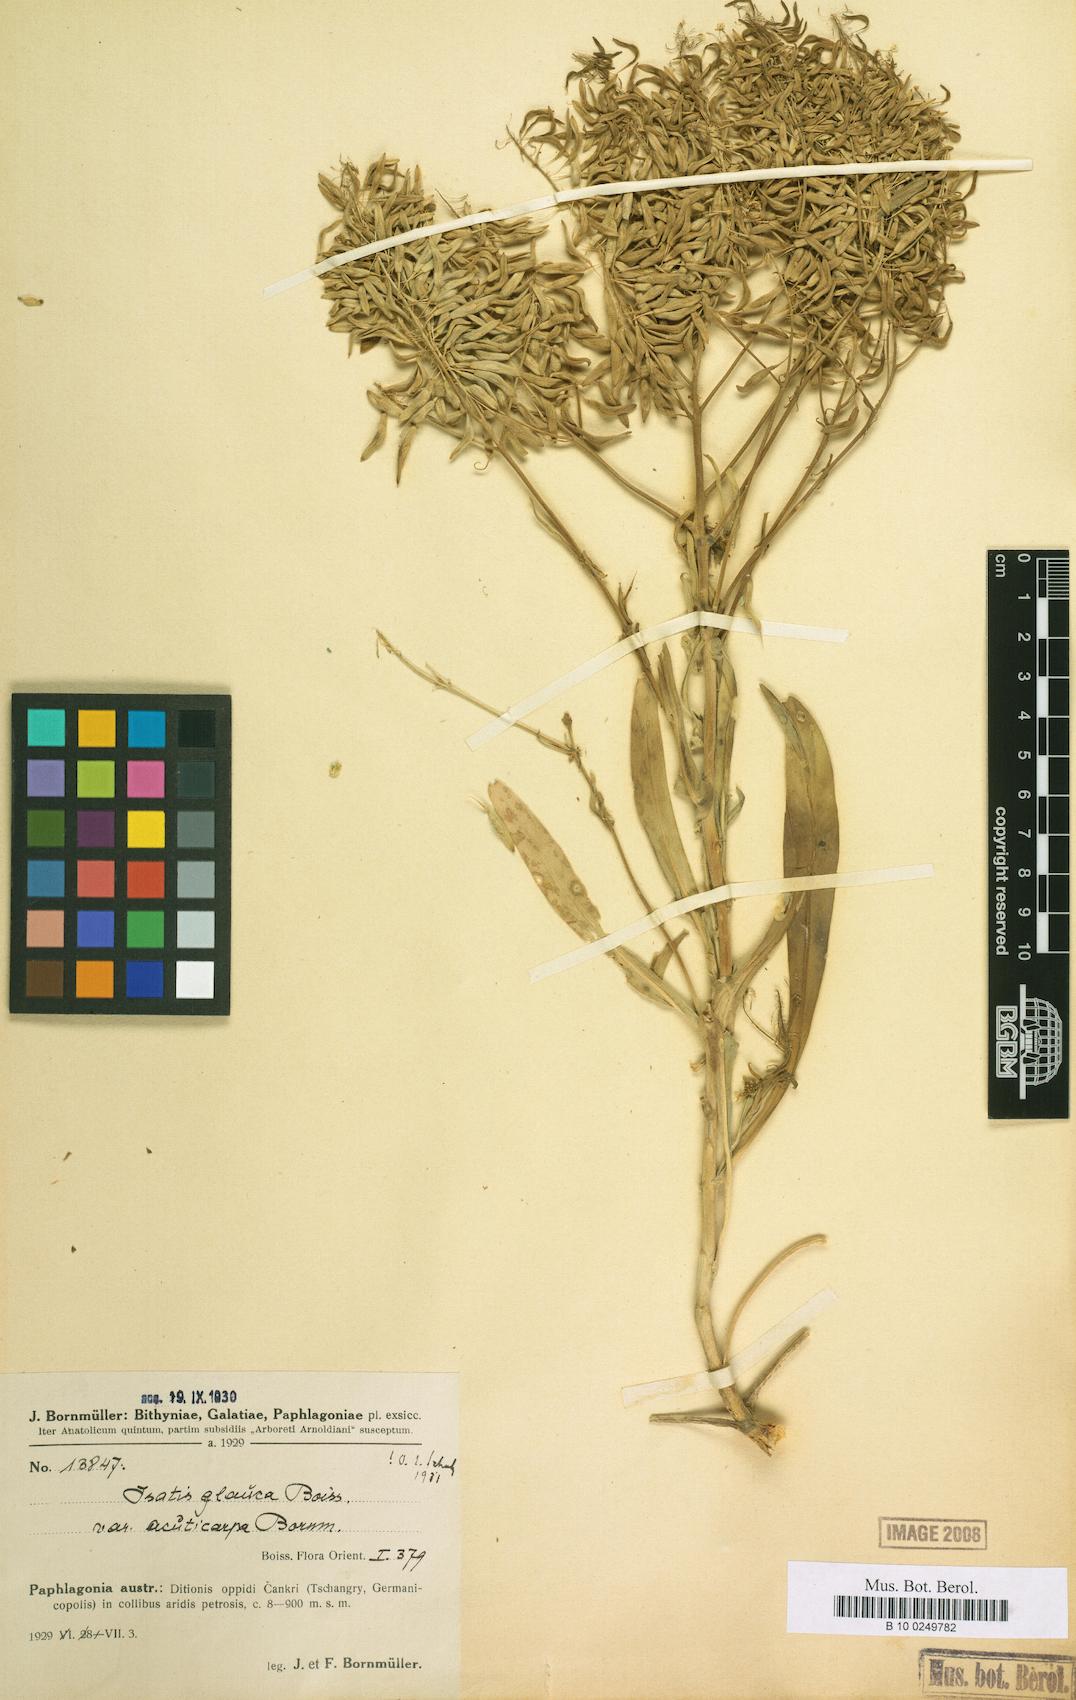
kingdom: Plantae
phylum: Tracheophyta
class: Magnoliopsida
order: Brassicales
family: Brassicaceae
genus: Isatis
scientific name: Isatis glauca
